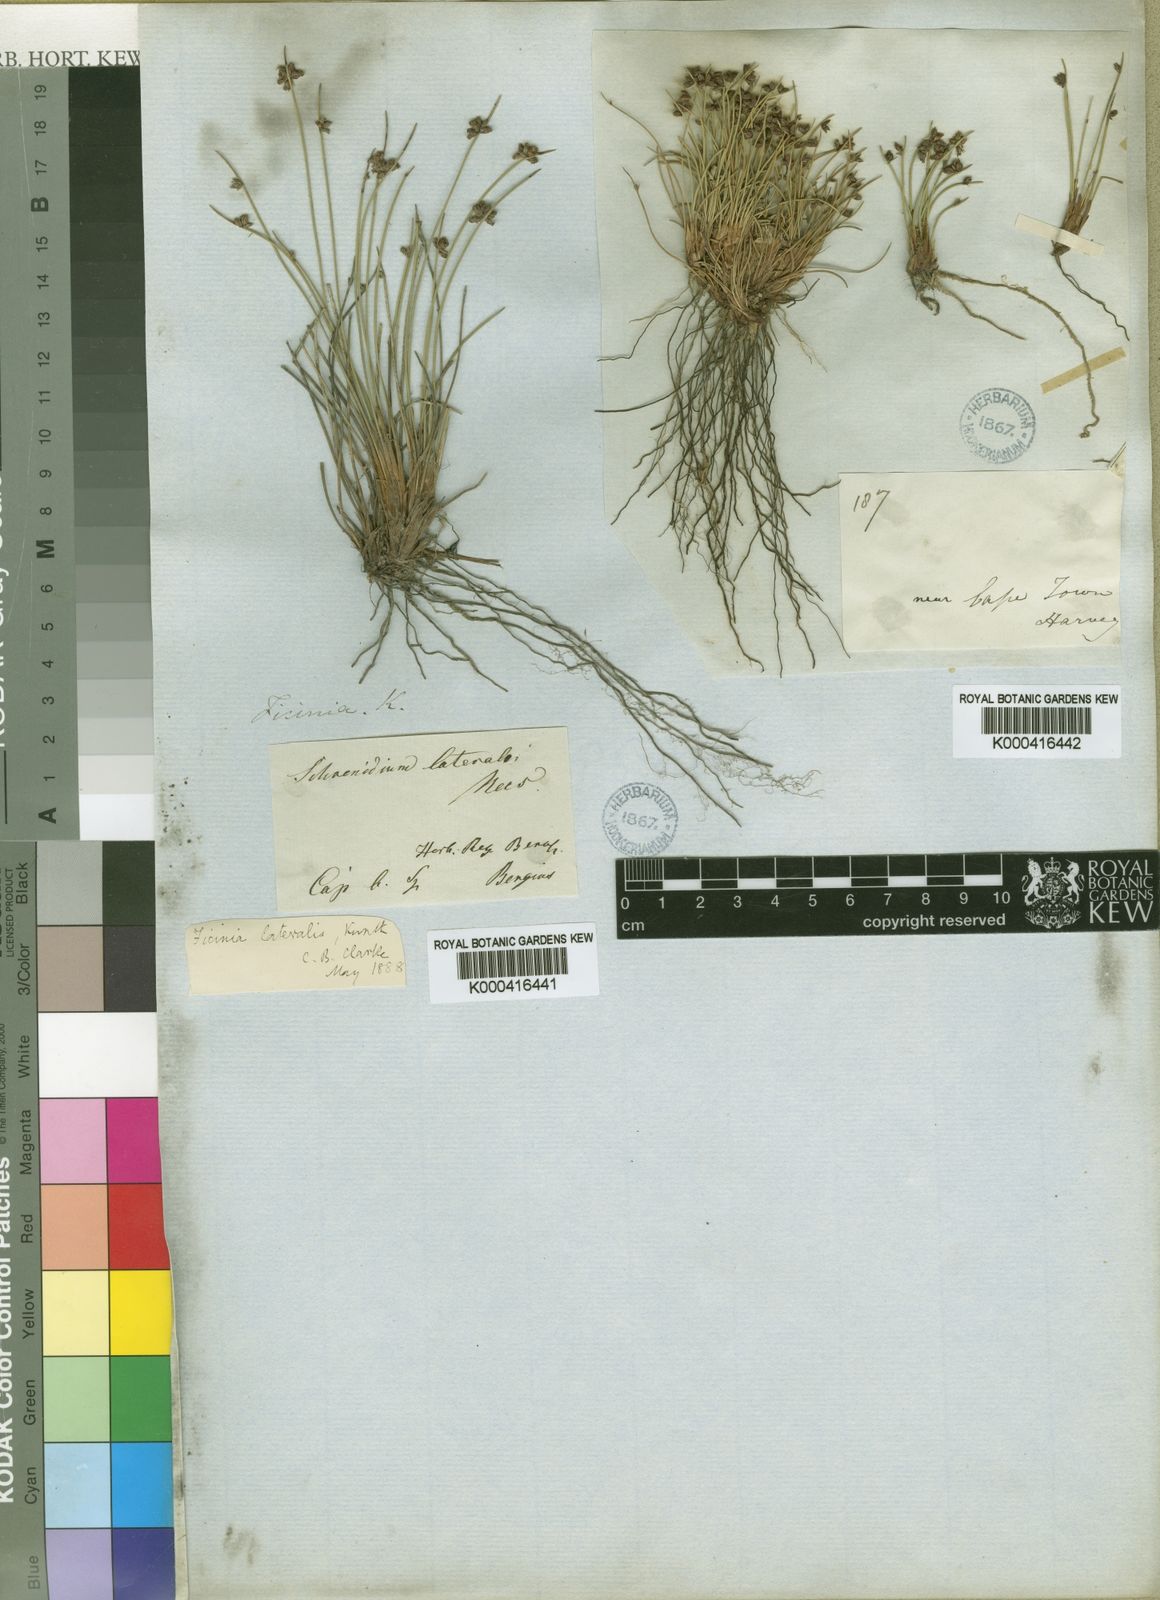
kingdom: Plantae
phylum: Tracheophyta
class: Liliopsida
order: Poales
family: Cyperaceae
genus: Ficinia
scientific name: Ficinia lateralis
